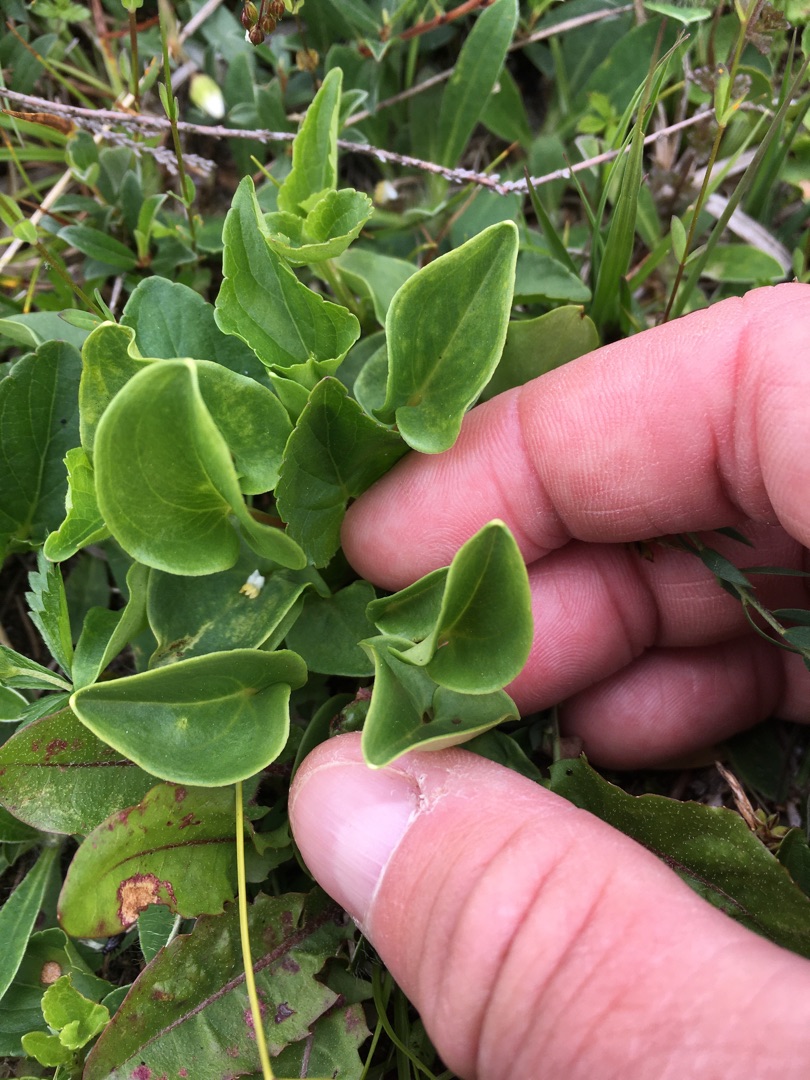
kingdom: Plantae
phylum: Tracheophyta
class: Magnoliopsida
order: Celastrales
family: Parnassiaceae
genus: Parnassia
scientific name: Parnassia palustris
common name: Leverurt
